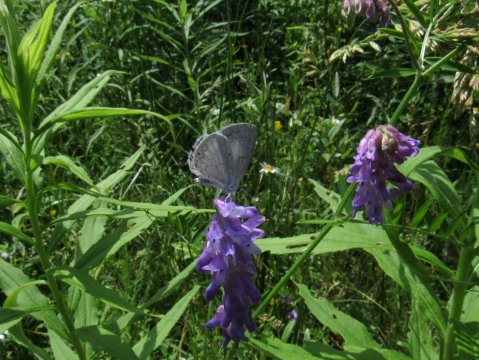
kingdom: Animalia
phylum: Arthropoda
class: Insecta
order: Lepidoptera
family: Lycaenidae
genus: Cyaniris
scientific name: Cyaniris neglecta
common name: Summer Azure
